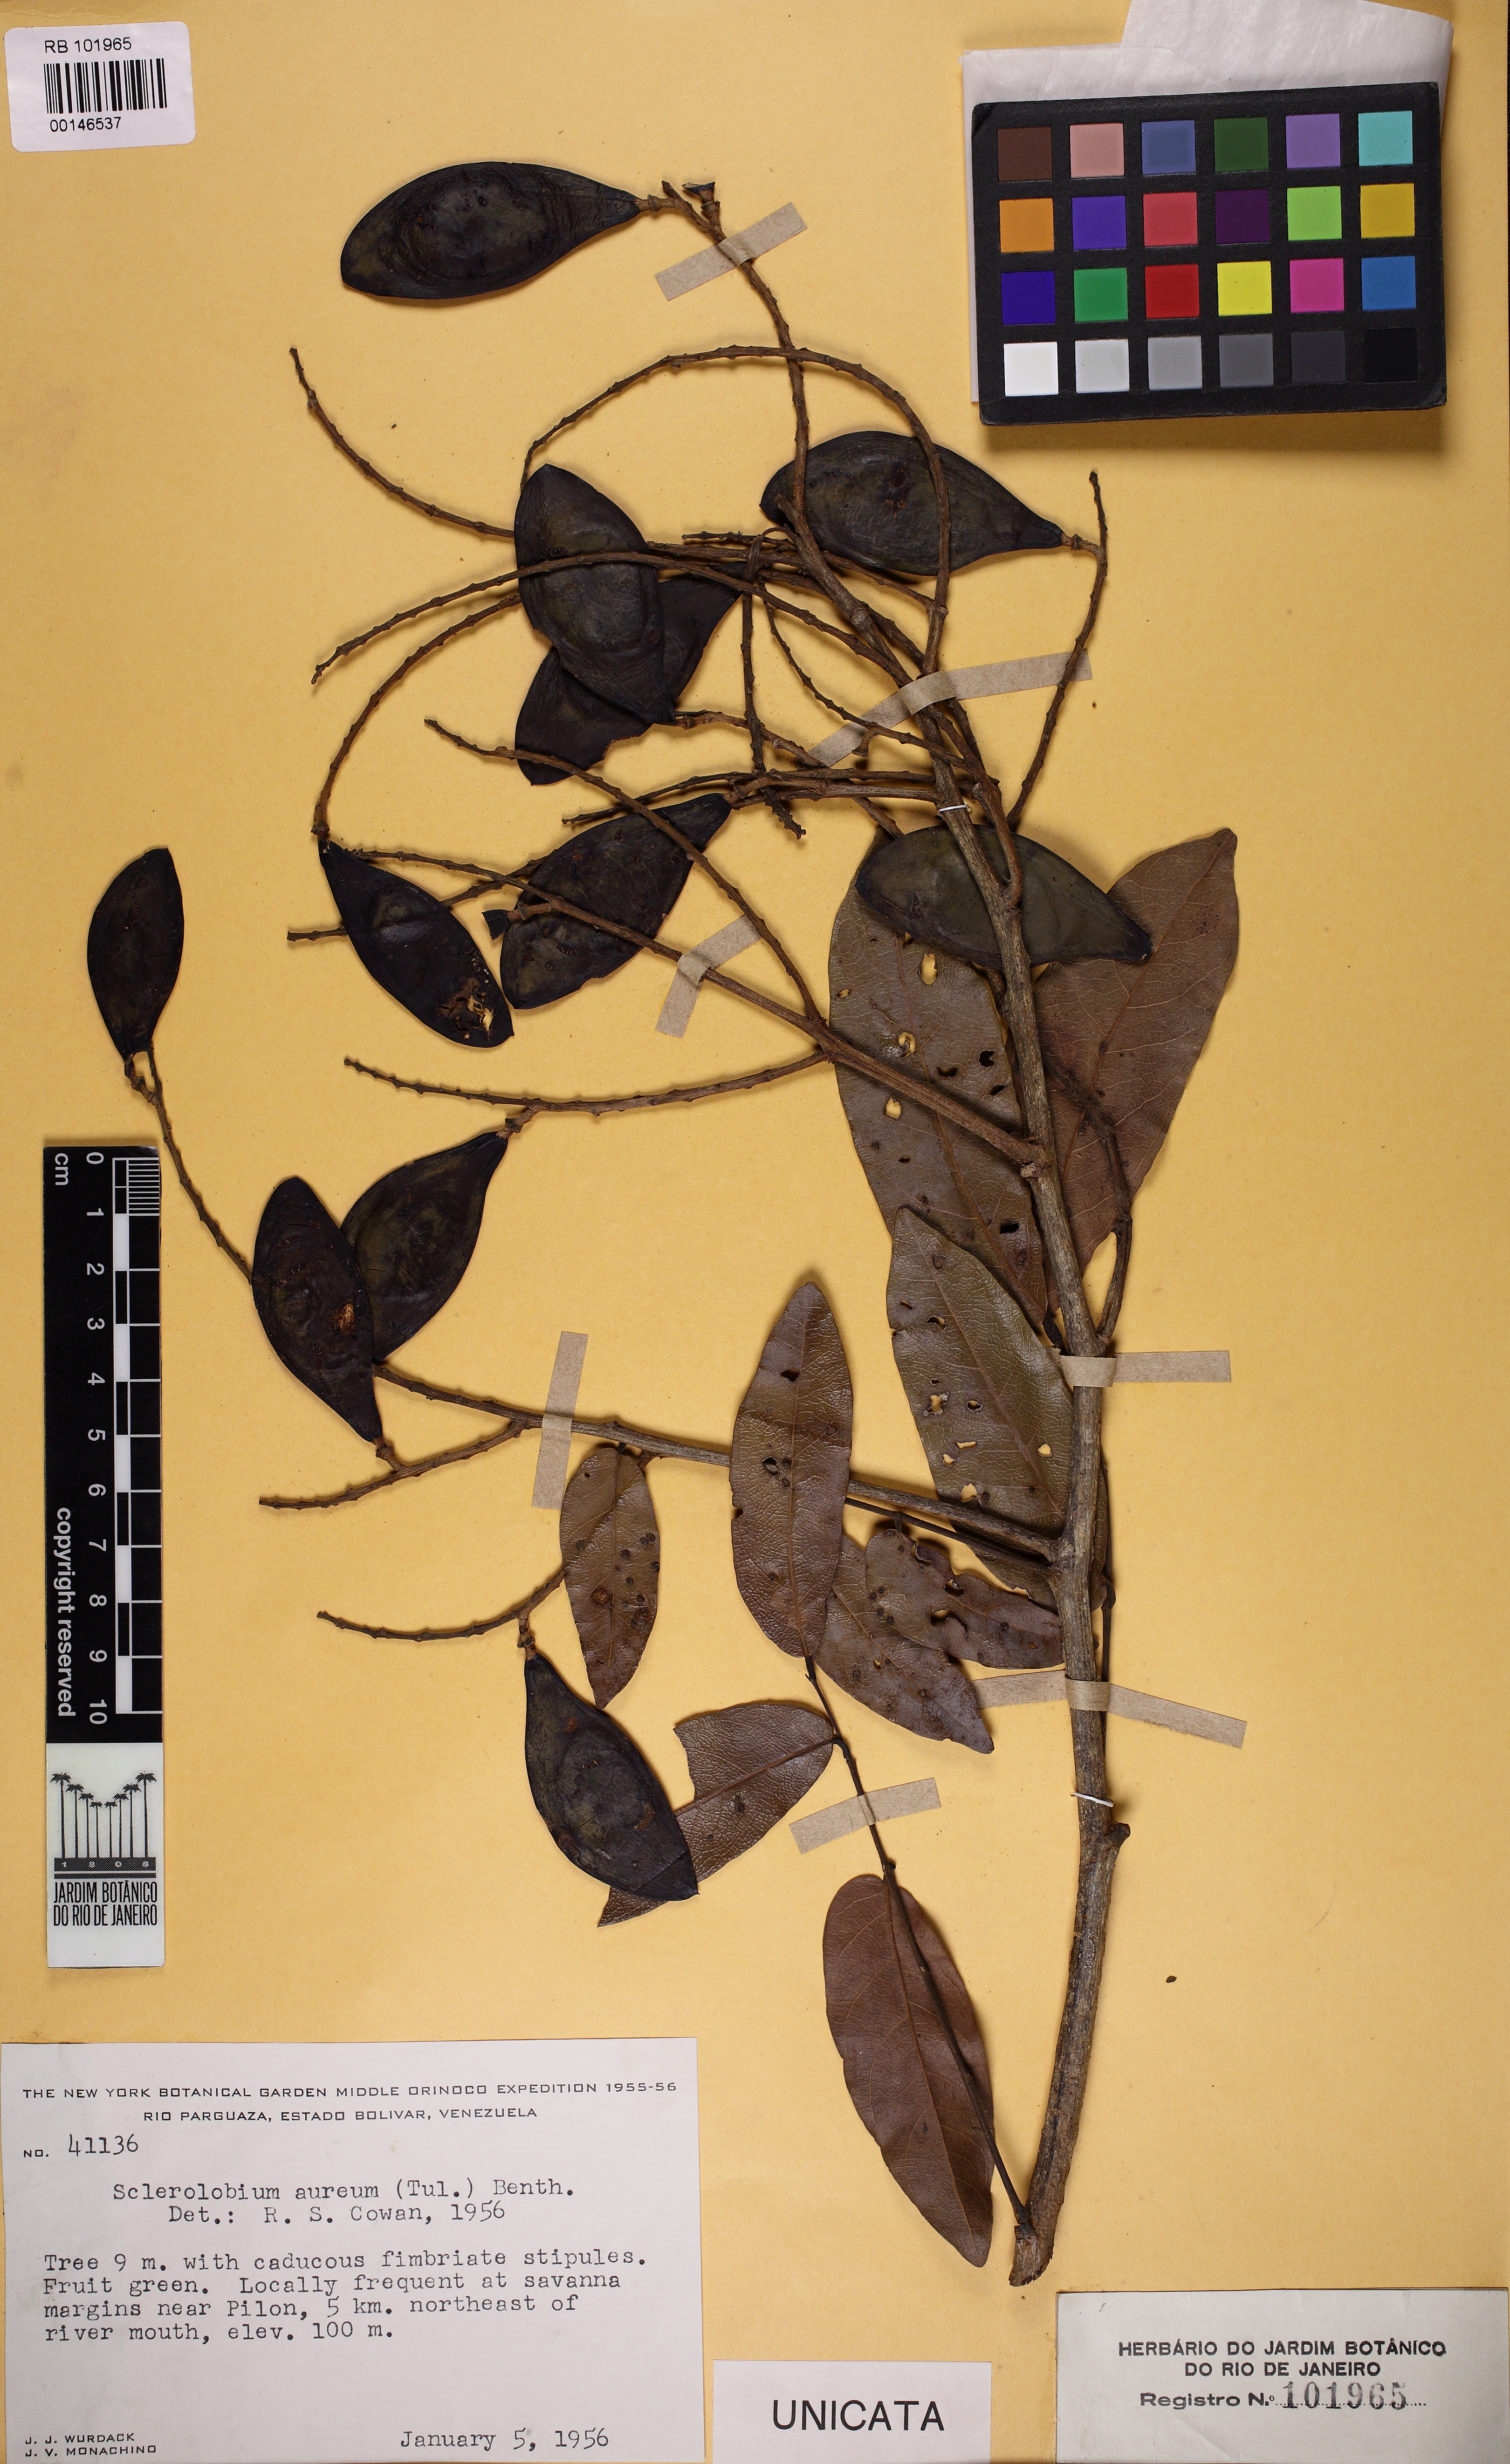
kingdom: Plantae
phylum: Tracheophyta
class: Magnoliopsida
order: Fabales
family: Fabaceae
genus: Tachigali
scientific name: Tachigali aurea
